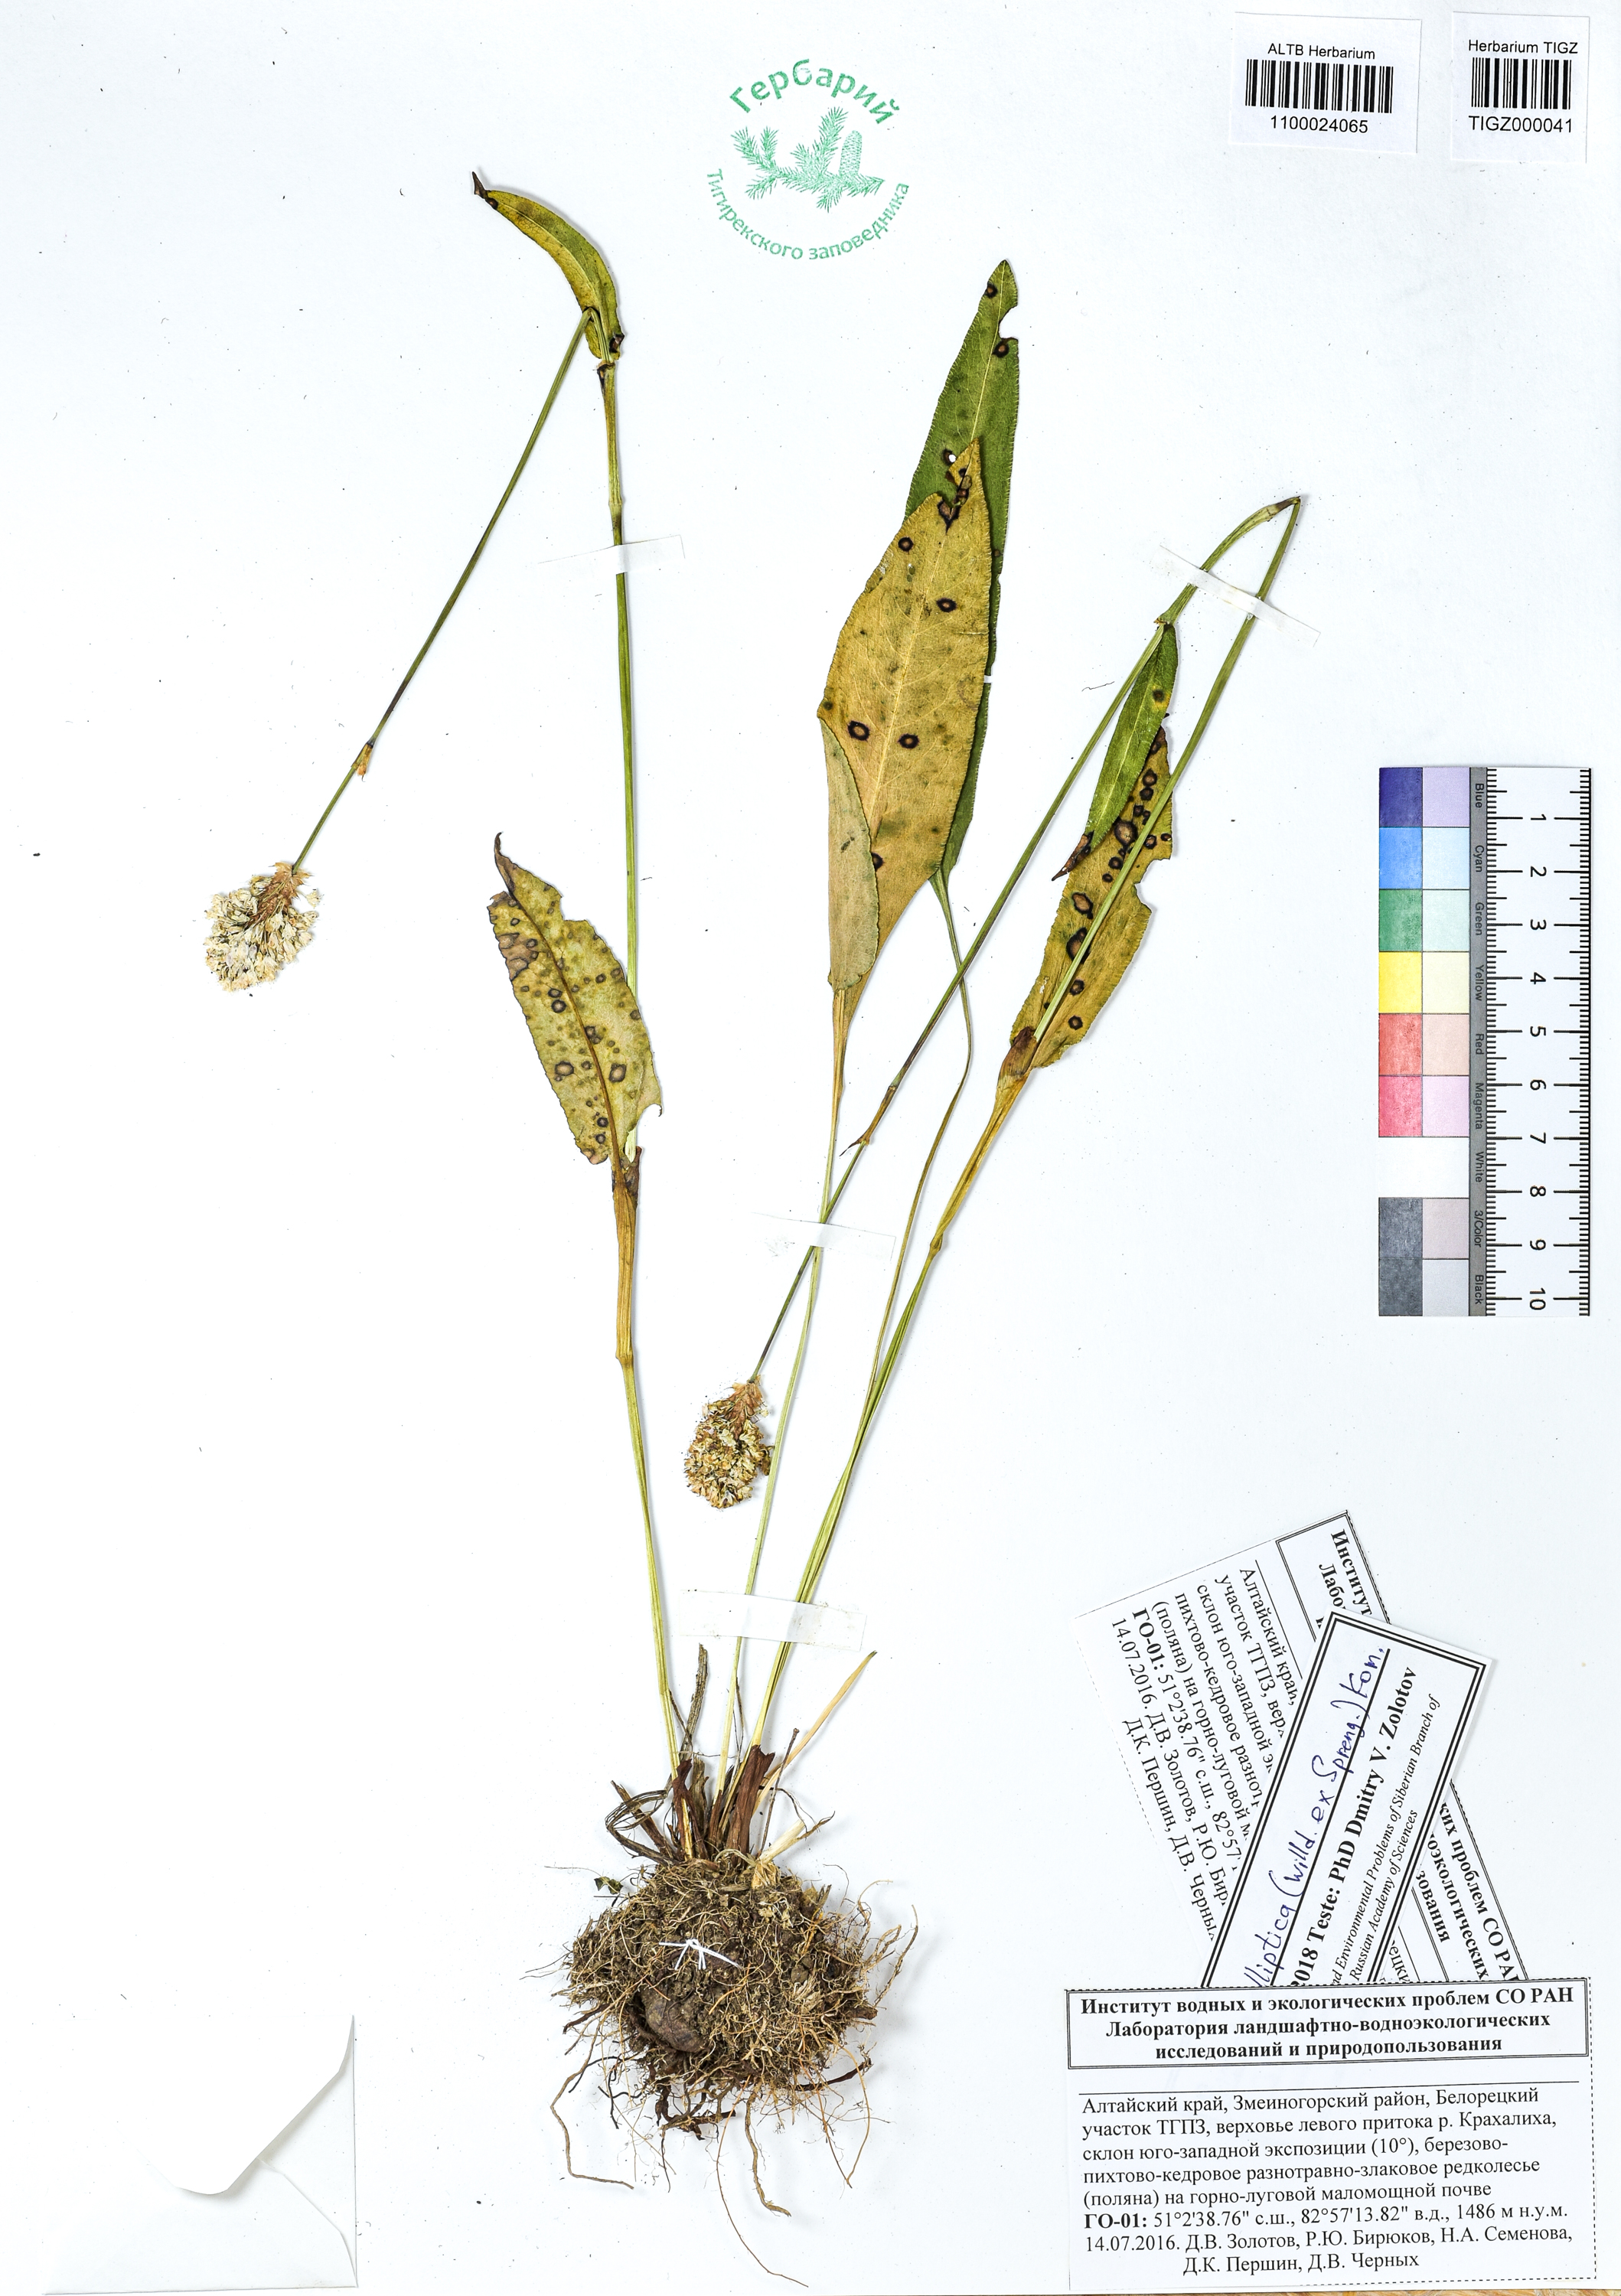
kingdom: Plantae
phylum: Tracheophyta
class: Magnoliopsida
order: Caryophyllales
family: Polygonaceae
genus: Bistorta
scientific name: Bistorta elliptica
